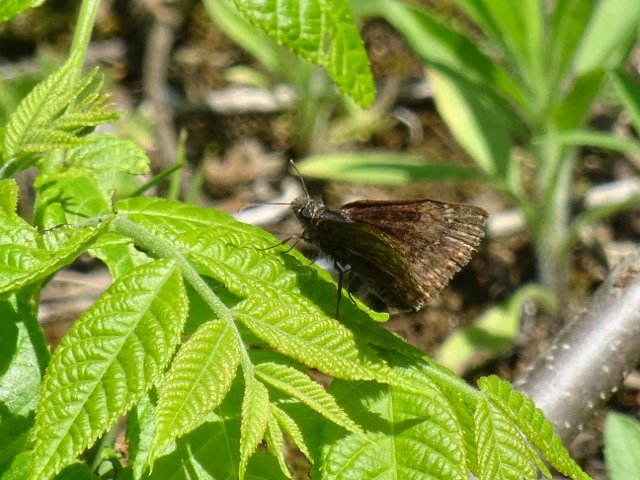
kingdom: Animalia
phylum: Arthropoda
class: Insecta
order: Lepidoptera
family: Hesperiidae
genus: Gesta
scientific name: Gesta
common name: Columbine Duskywing
